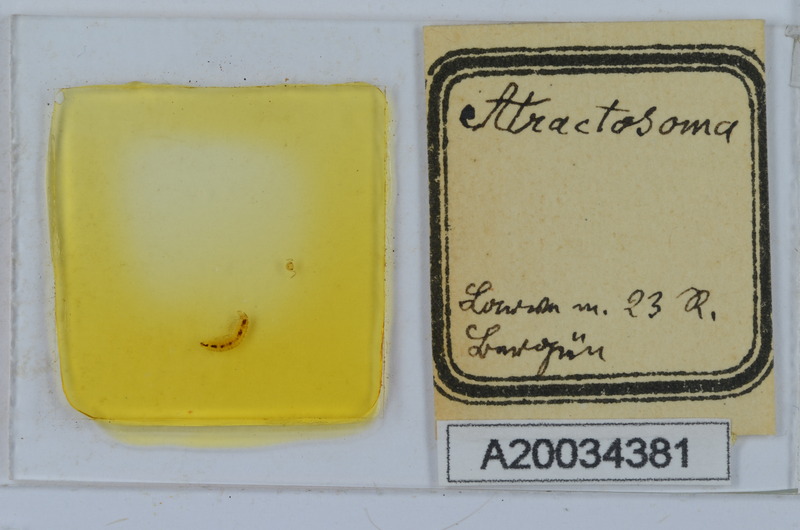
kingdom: Animalia
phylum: Arthropoda
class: Diplopoda
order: Chordeumatida
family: Craspedosomatidae
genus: Atractosoma
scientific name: Atractosoma
